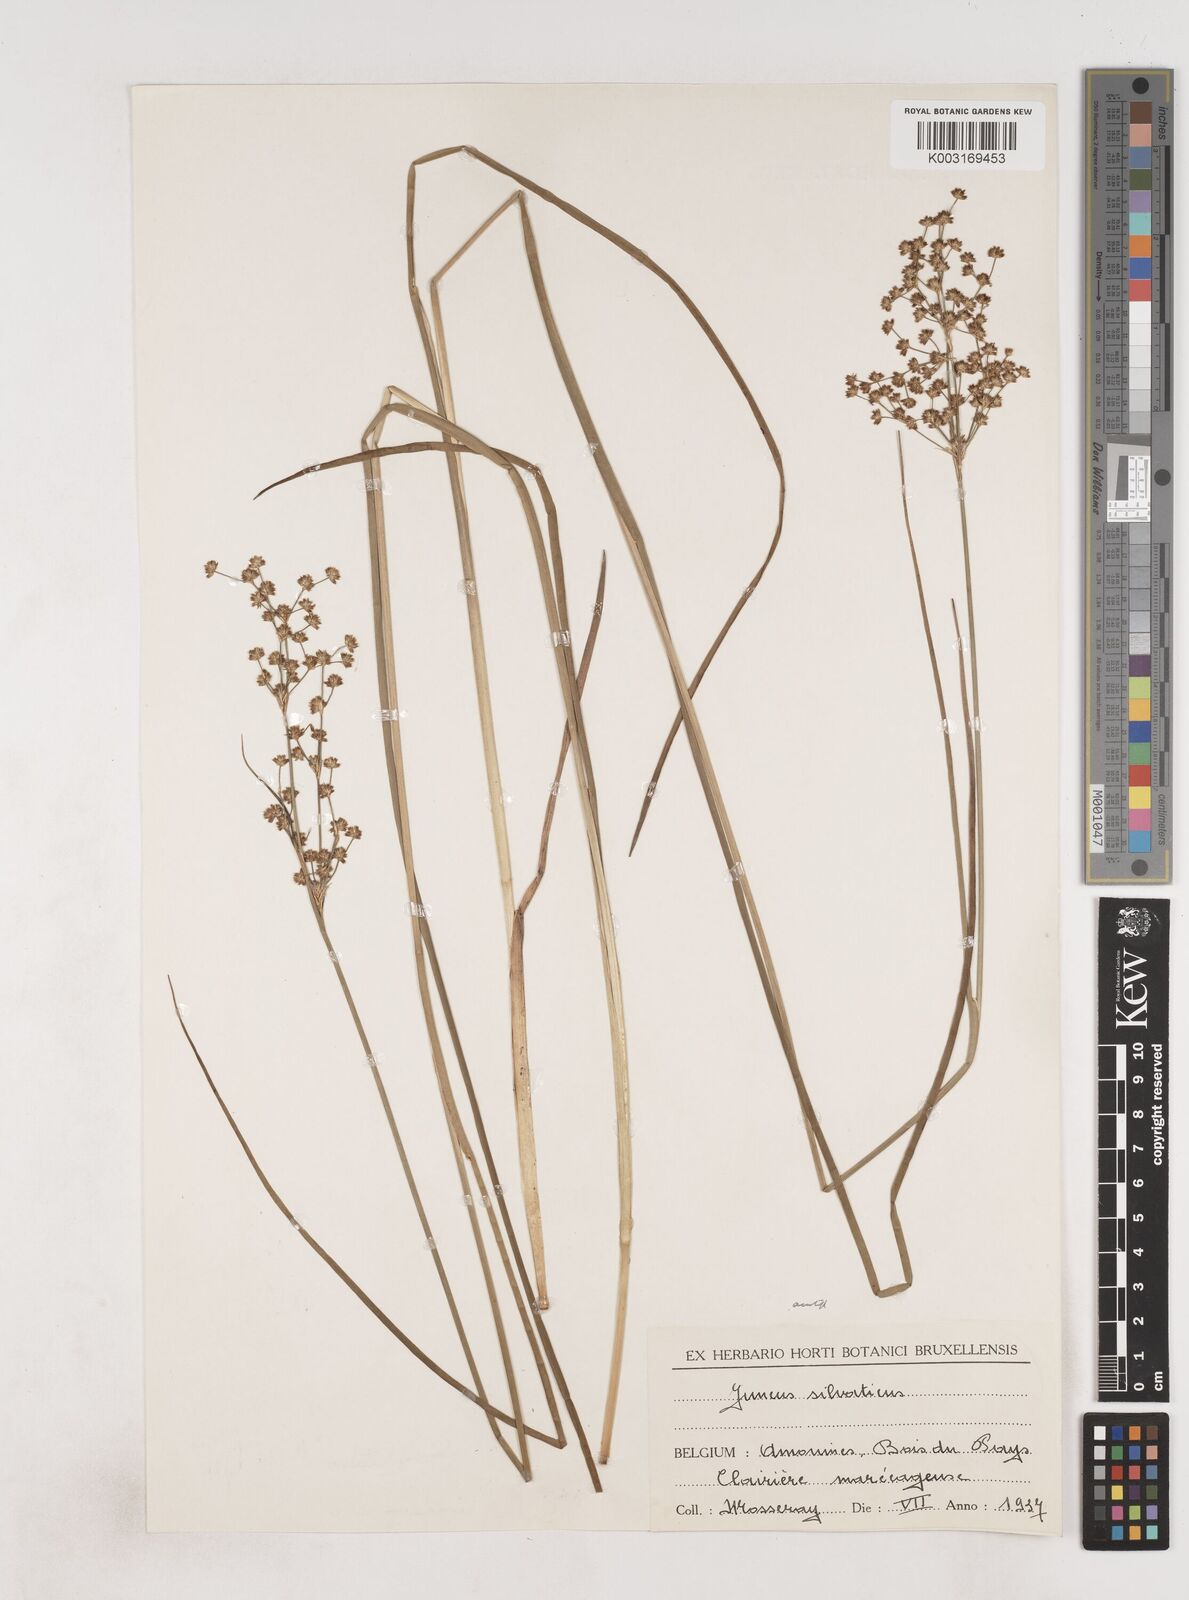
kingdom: Plantae
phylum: Tracheophyta
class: Liliopsida
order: Poales
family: Juncaceae
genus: Juncus
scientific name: Juncus acutiflorus
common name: Sharp-flowered rush
